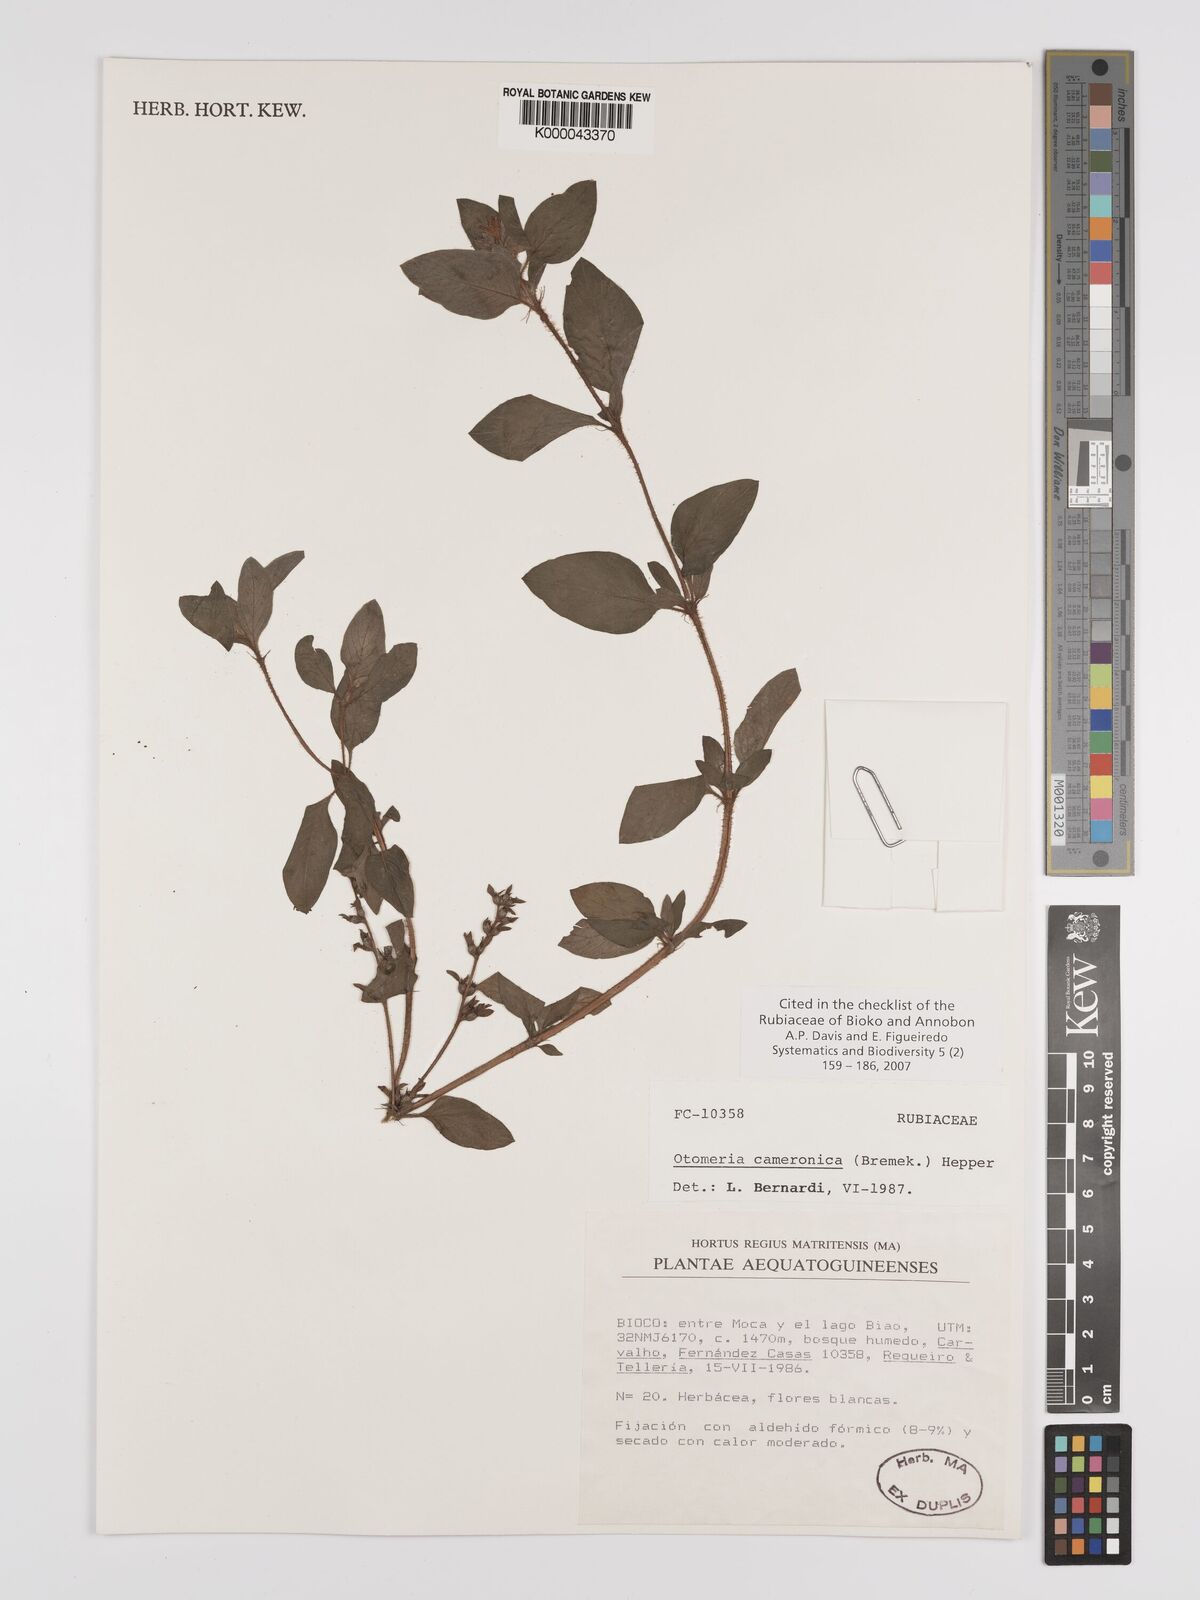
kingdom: Plantae
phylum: Tracheophyta
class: Magnoliopsida
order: Gentianales
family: Rubiaceae
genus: Otomeria
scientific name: Otomeria cameronica
